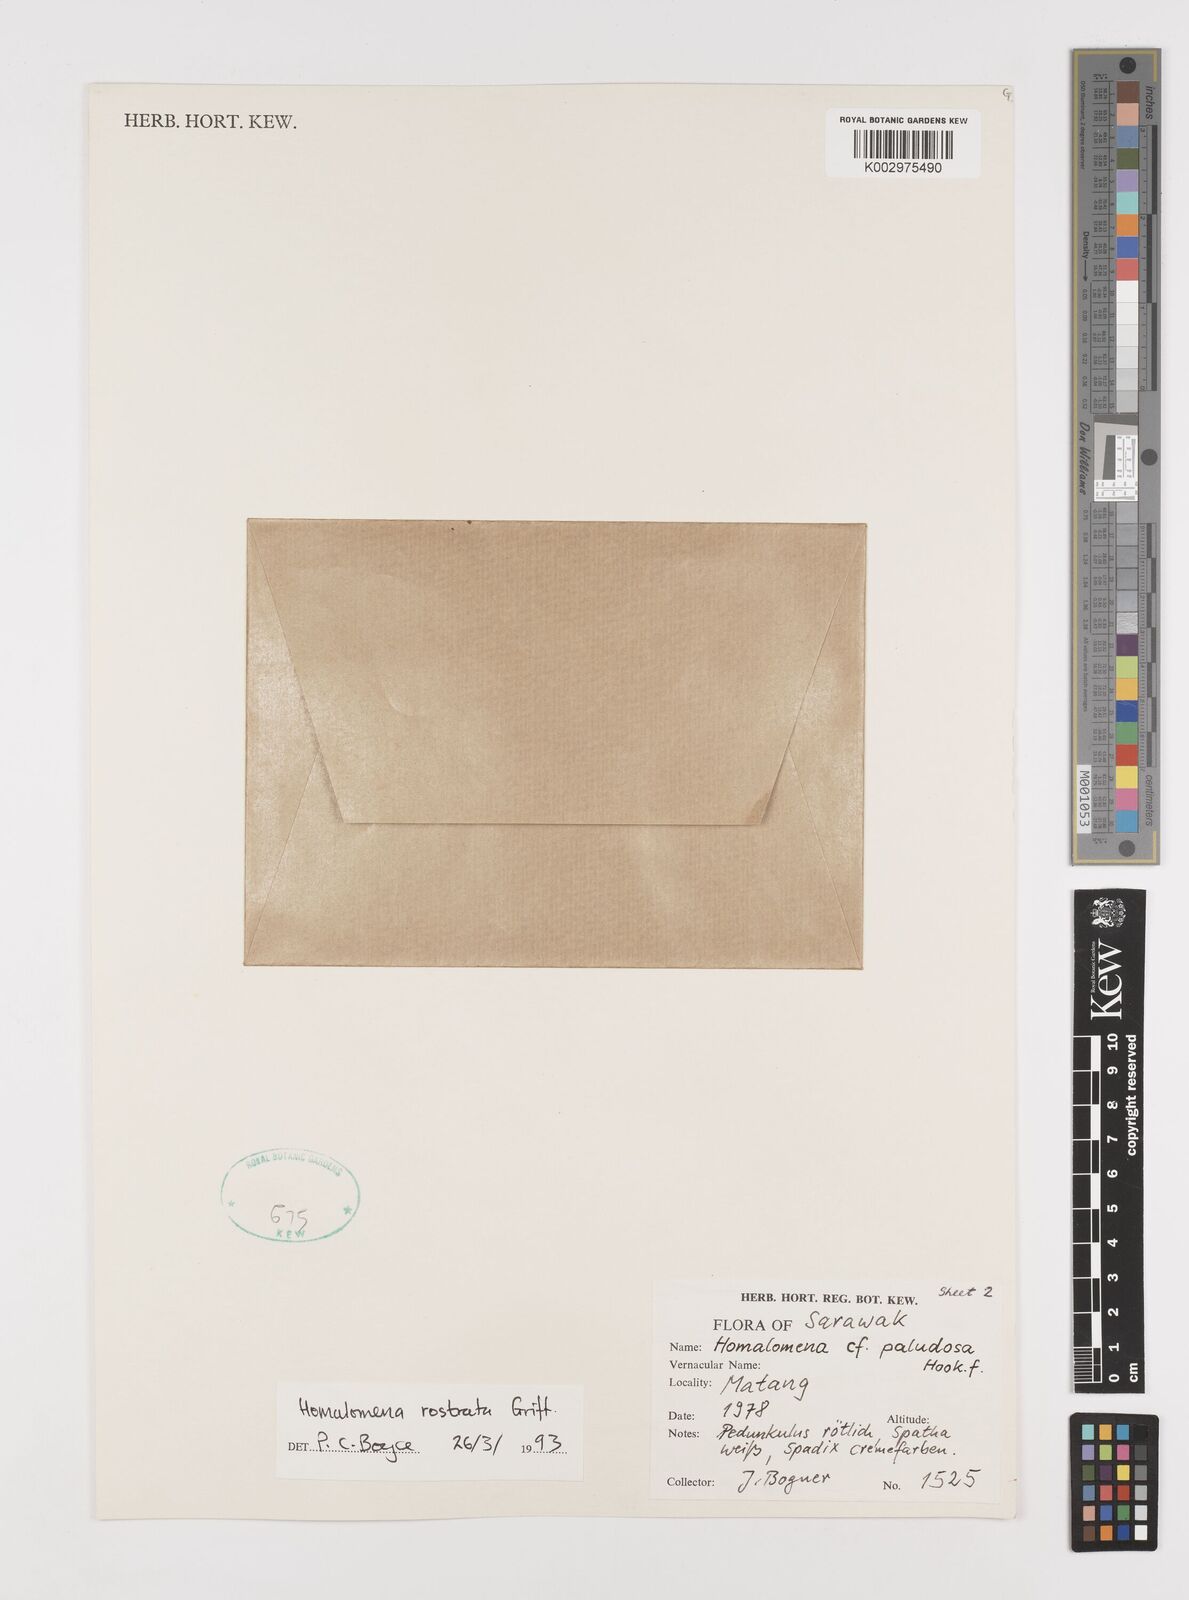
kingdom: Plantae
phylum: Tracheophyta
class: Liliopsida
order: Alismatales
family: Araceae
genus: Homalomena
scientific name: Homalomena rostrata
